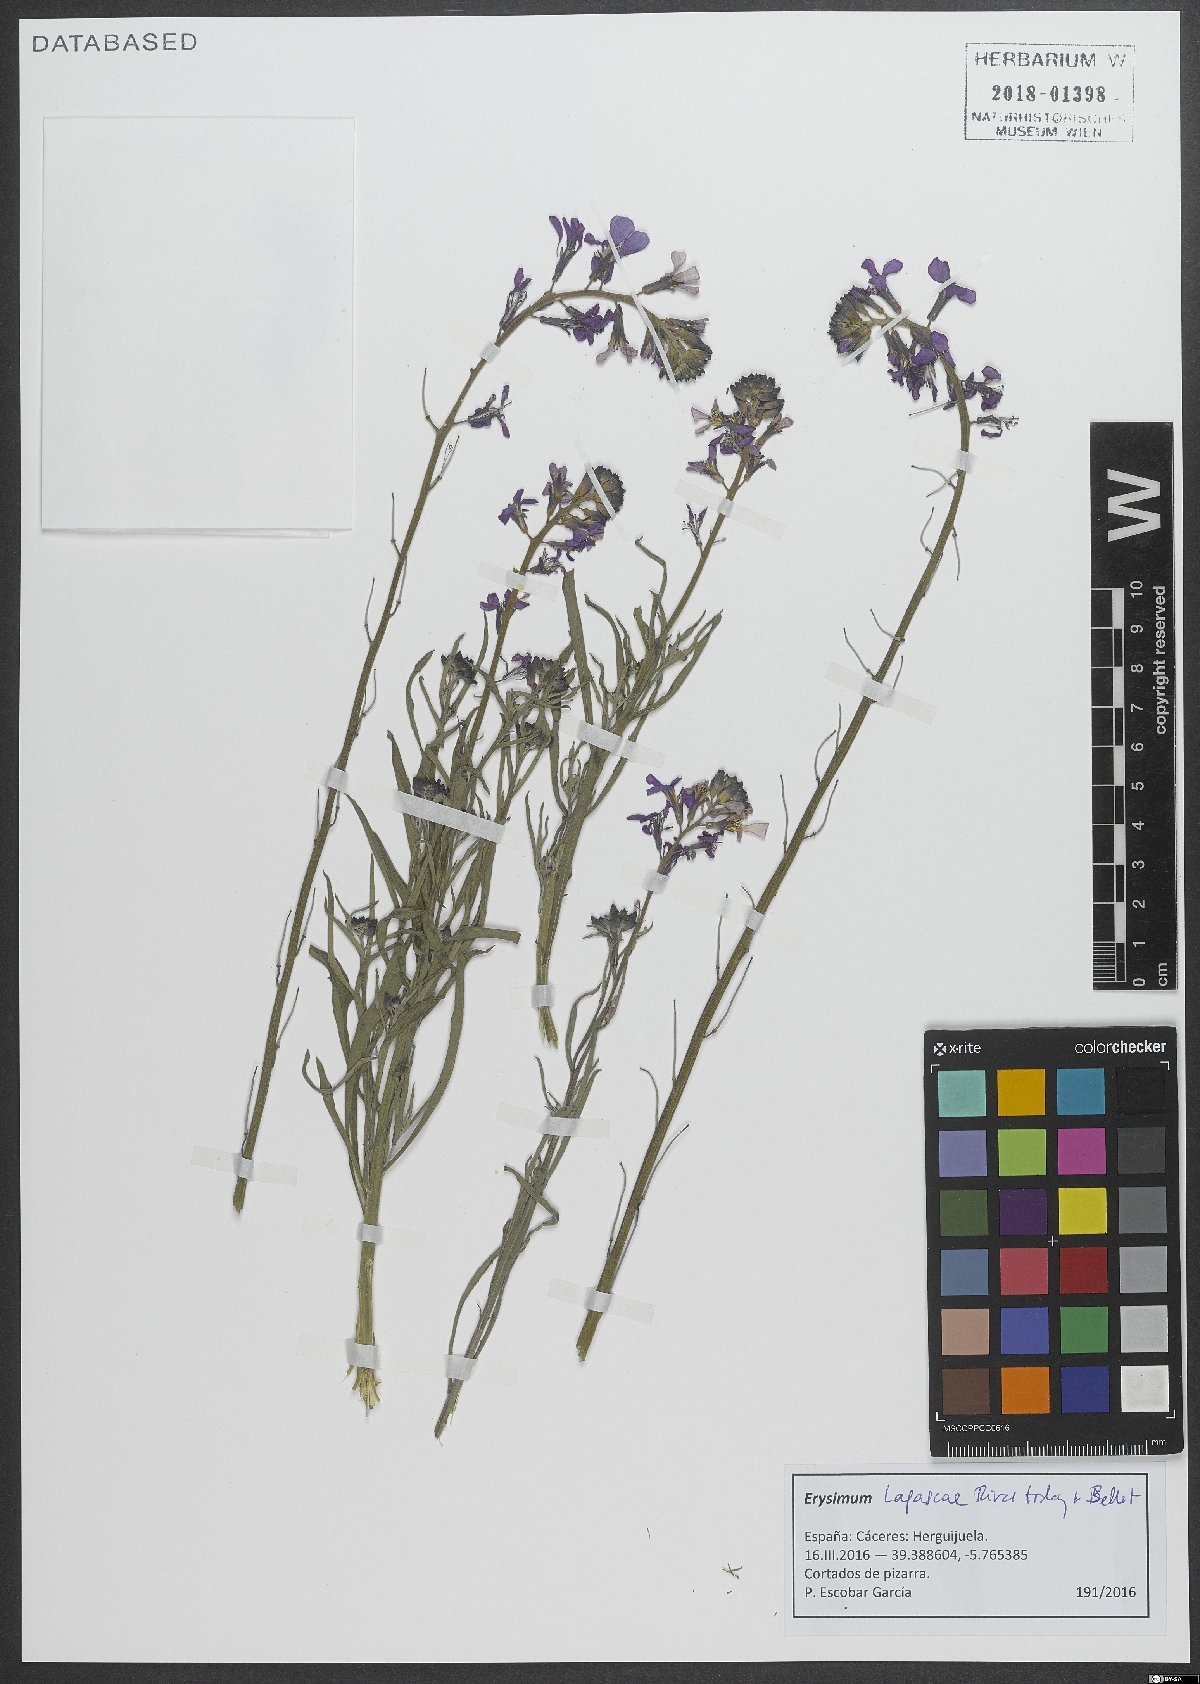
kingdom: Plantae
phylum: Tracheophyta
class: Magnoliopsida
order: Brassicales
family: Brassicaceae
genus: Erysimum
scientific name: Erysimum lagascae
